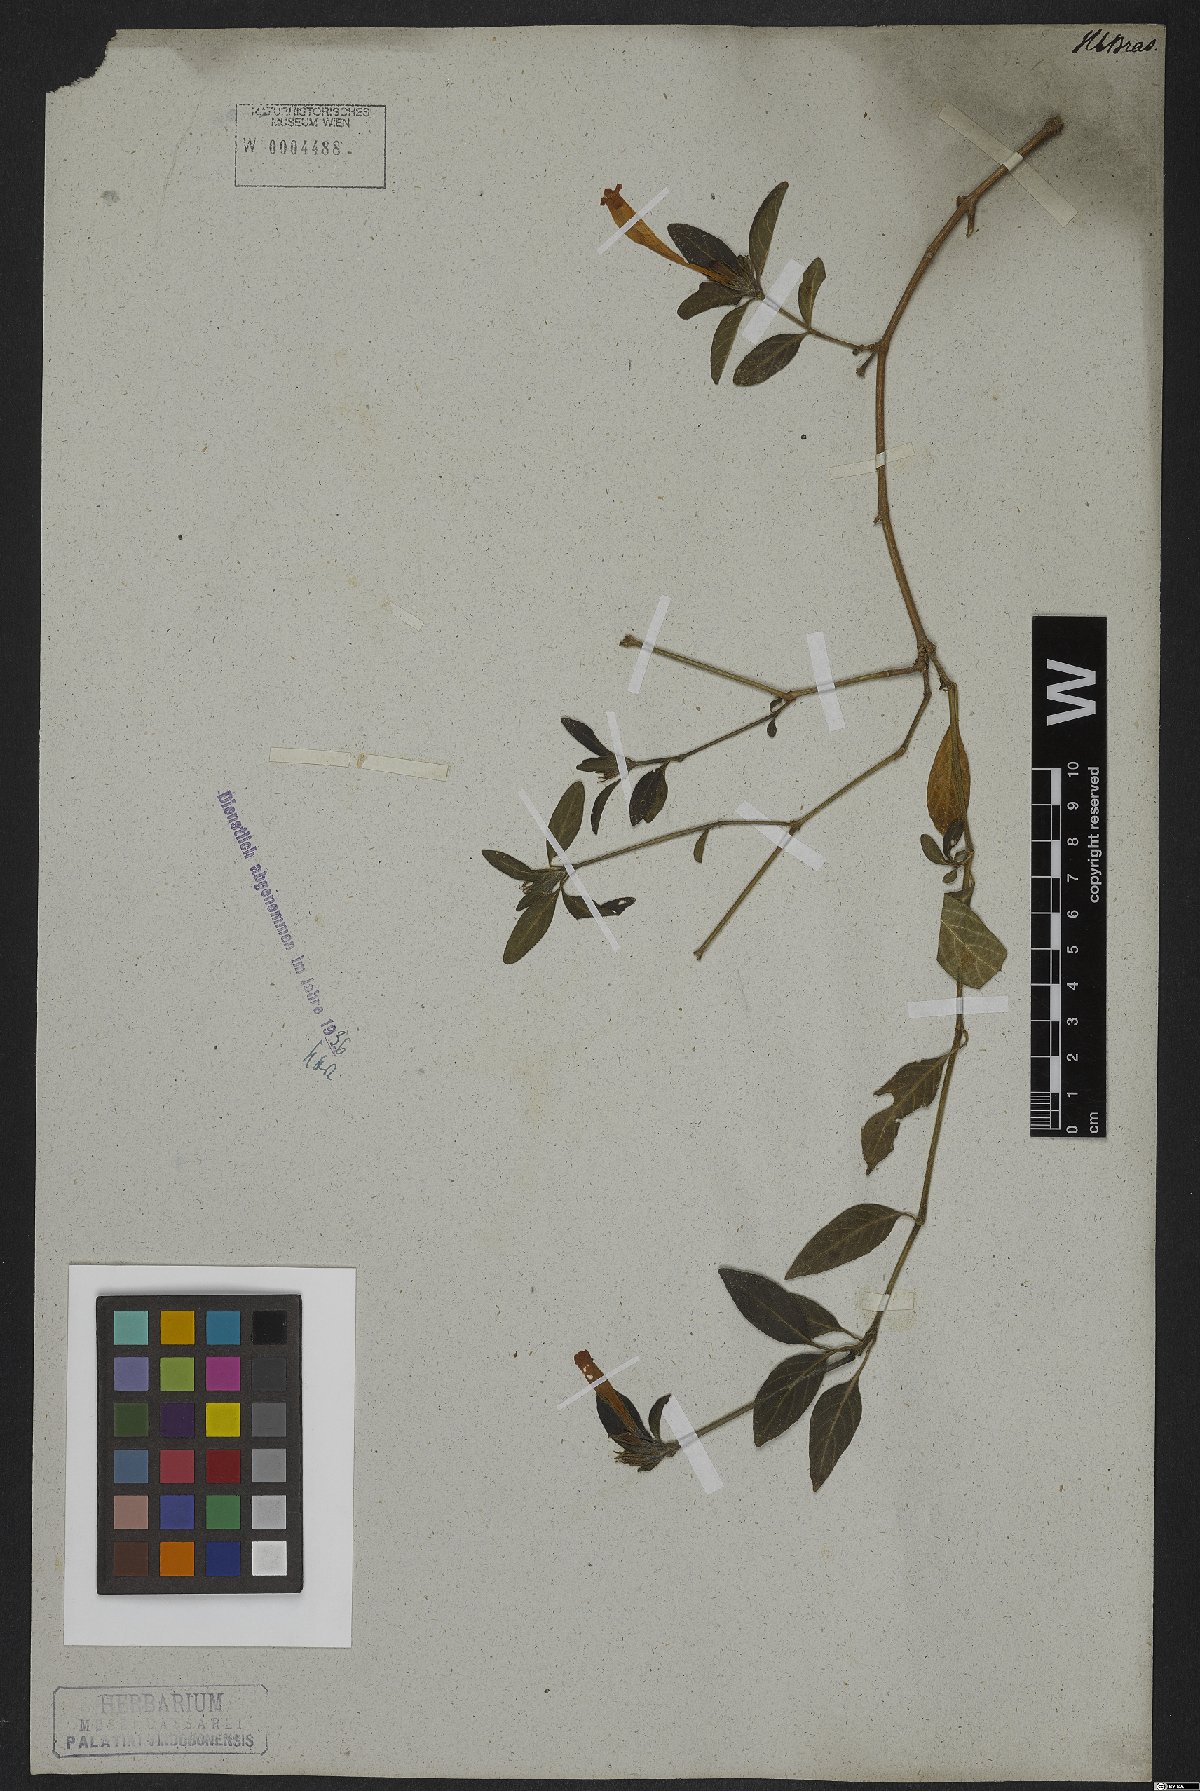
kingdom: Plantae
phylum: Tracheophyta
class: Magnoliopsida
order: Lamiales
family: Acanthaceae
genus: Strobilanthes
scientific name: Strobilanthes
